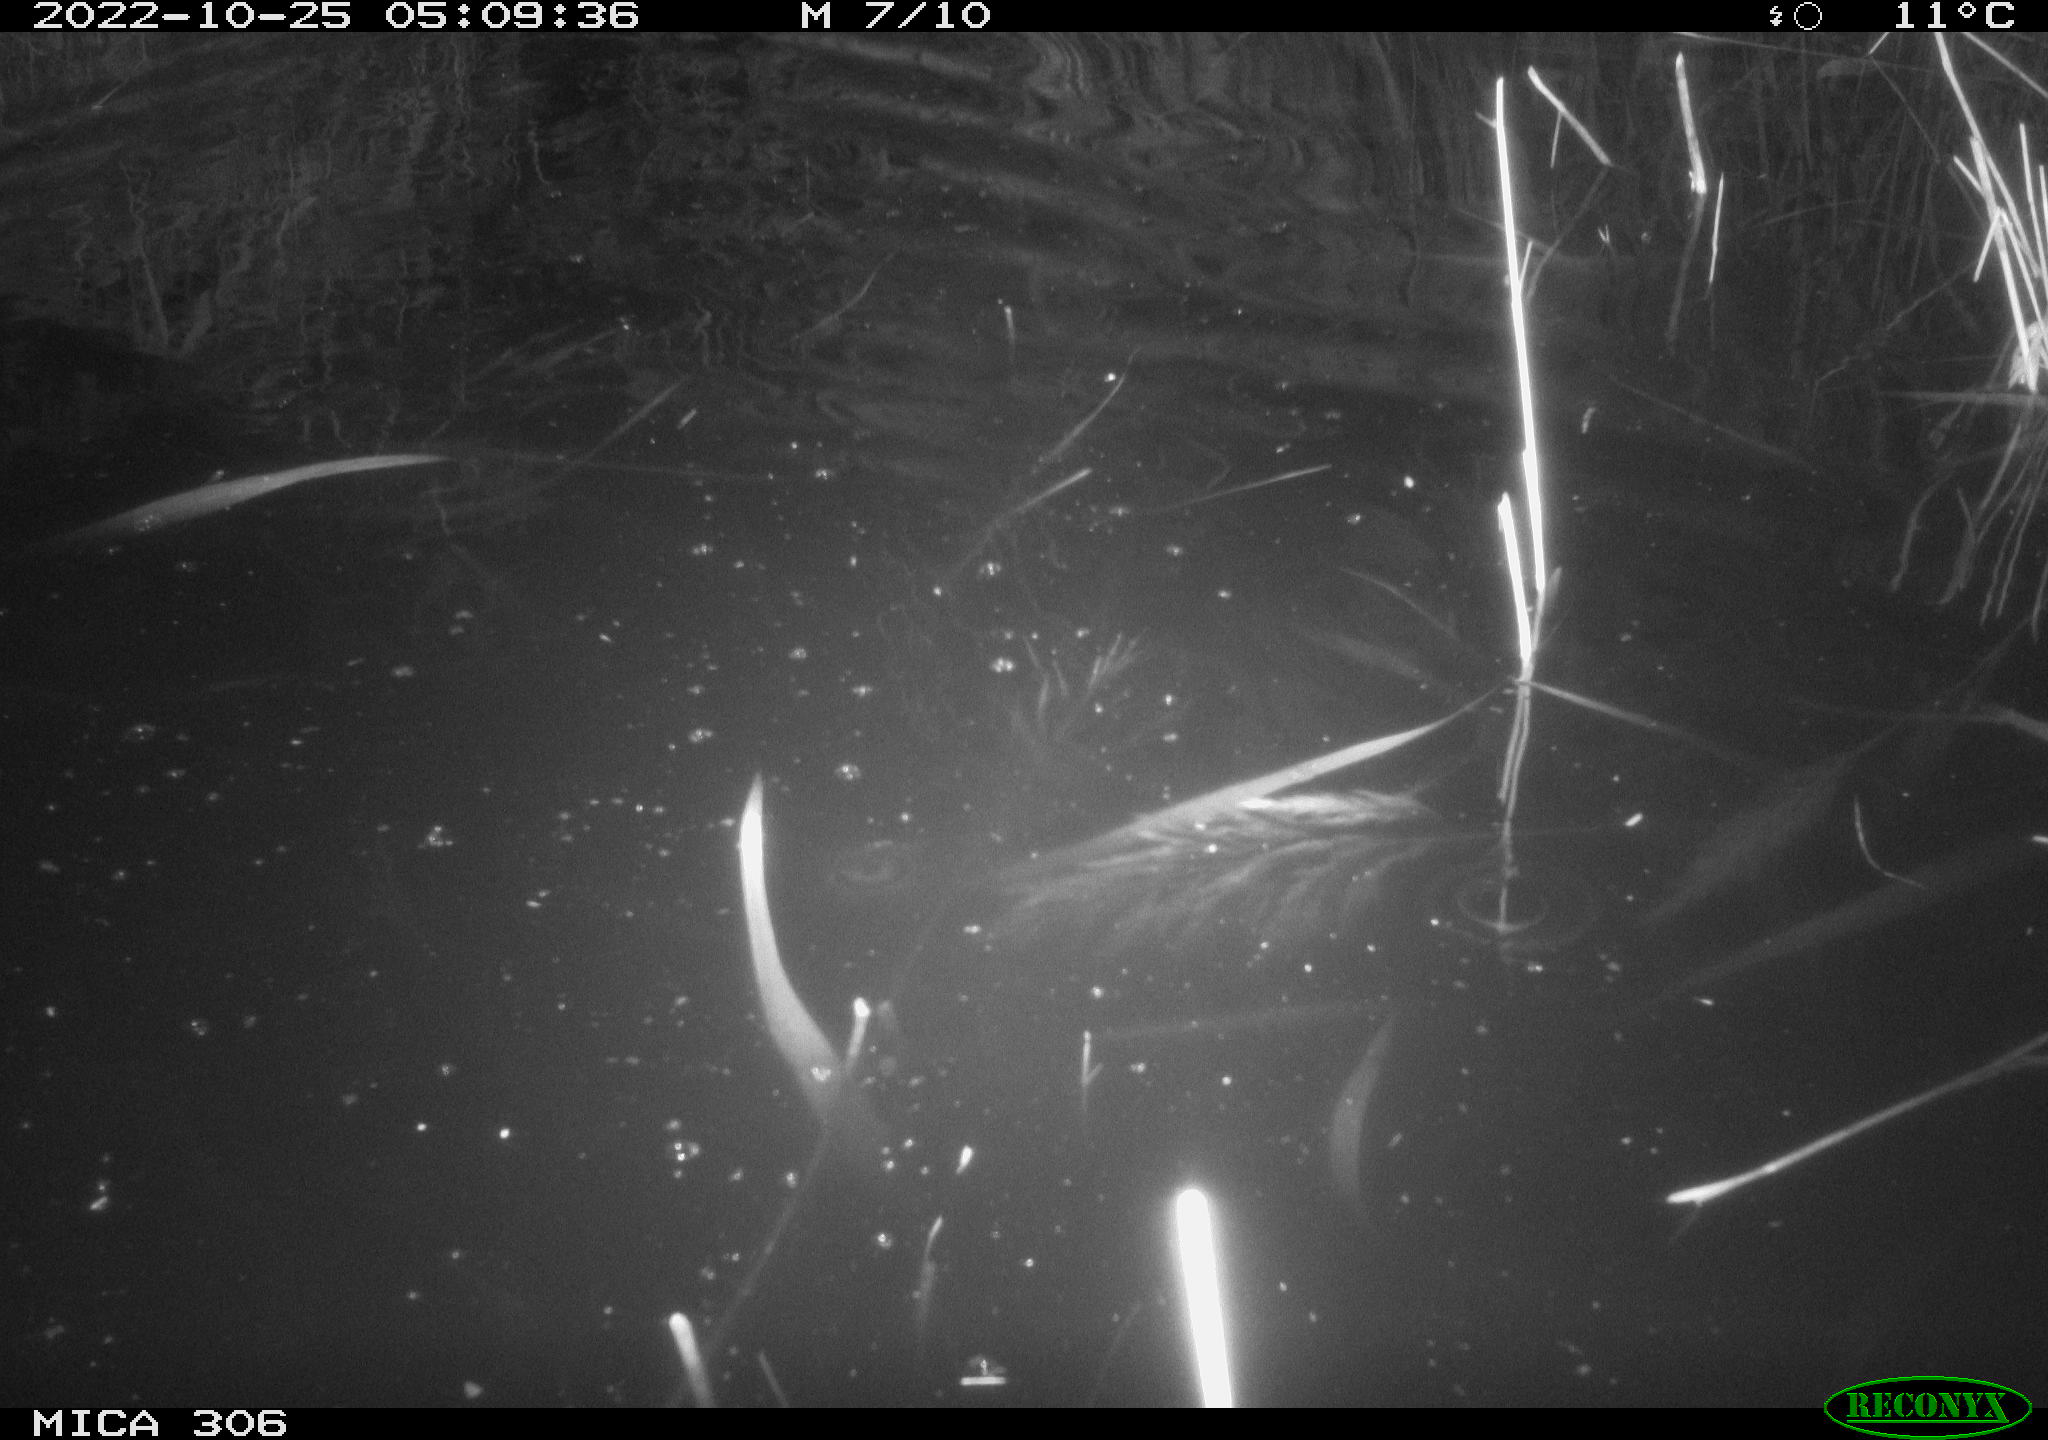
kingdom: Animalia
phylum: Chordata
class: Mammalia
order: Rodentia
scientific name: Rodentia
